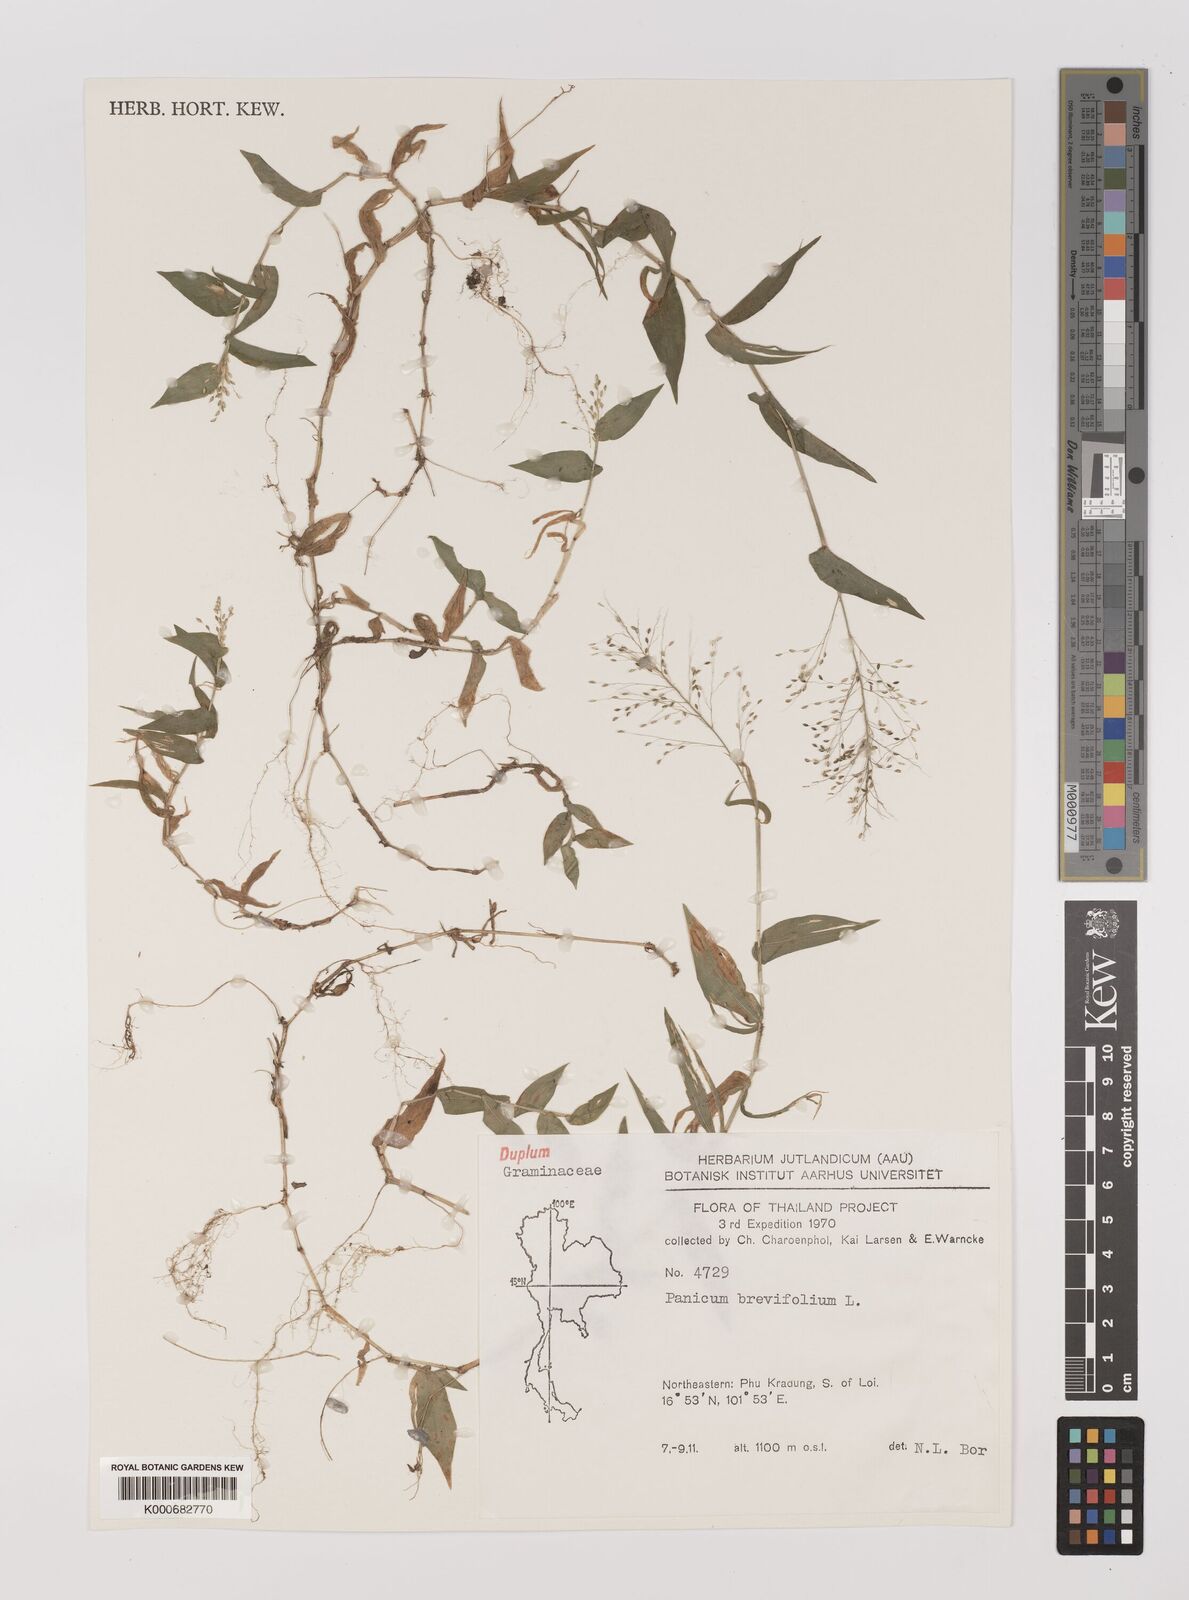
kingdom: Plantae
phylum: Tracheophyta
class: Liliopsida
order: Poales
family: Poaceae
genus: Panicum
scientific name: Panicum brevifolium
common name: Shortleaf panic grass
